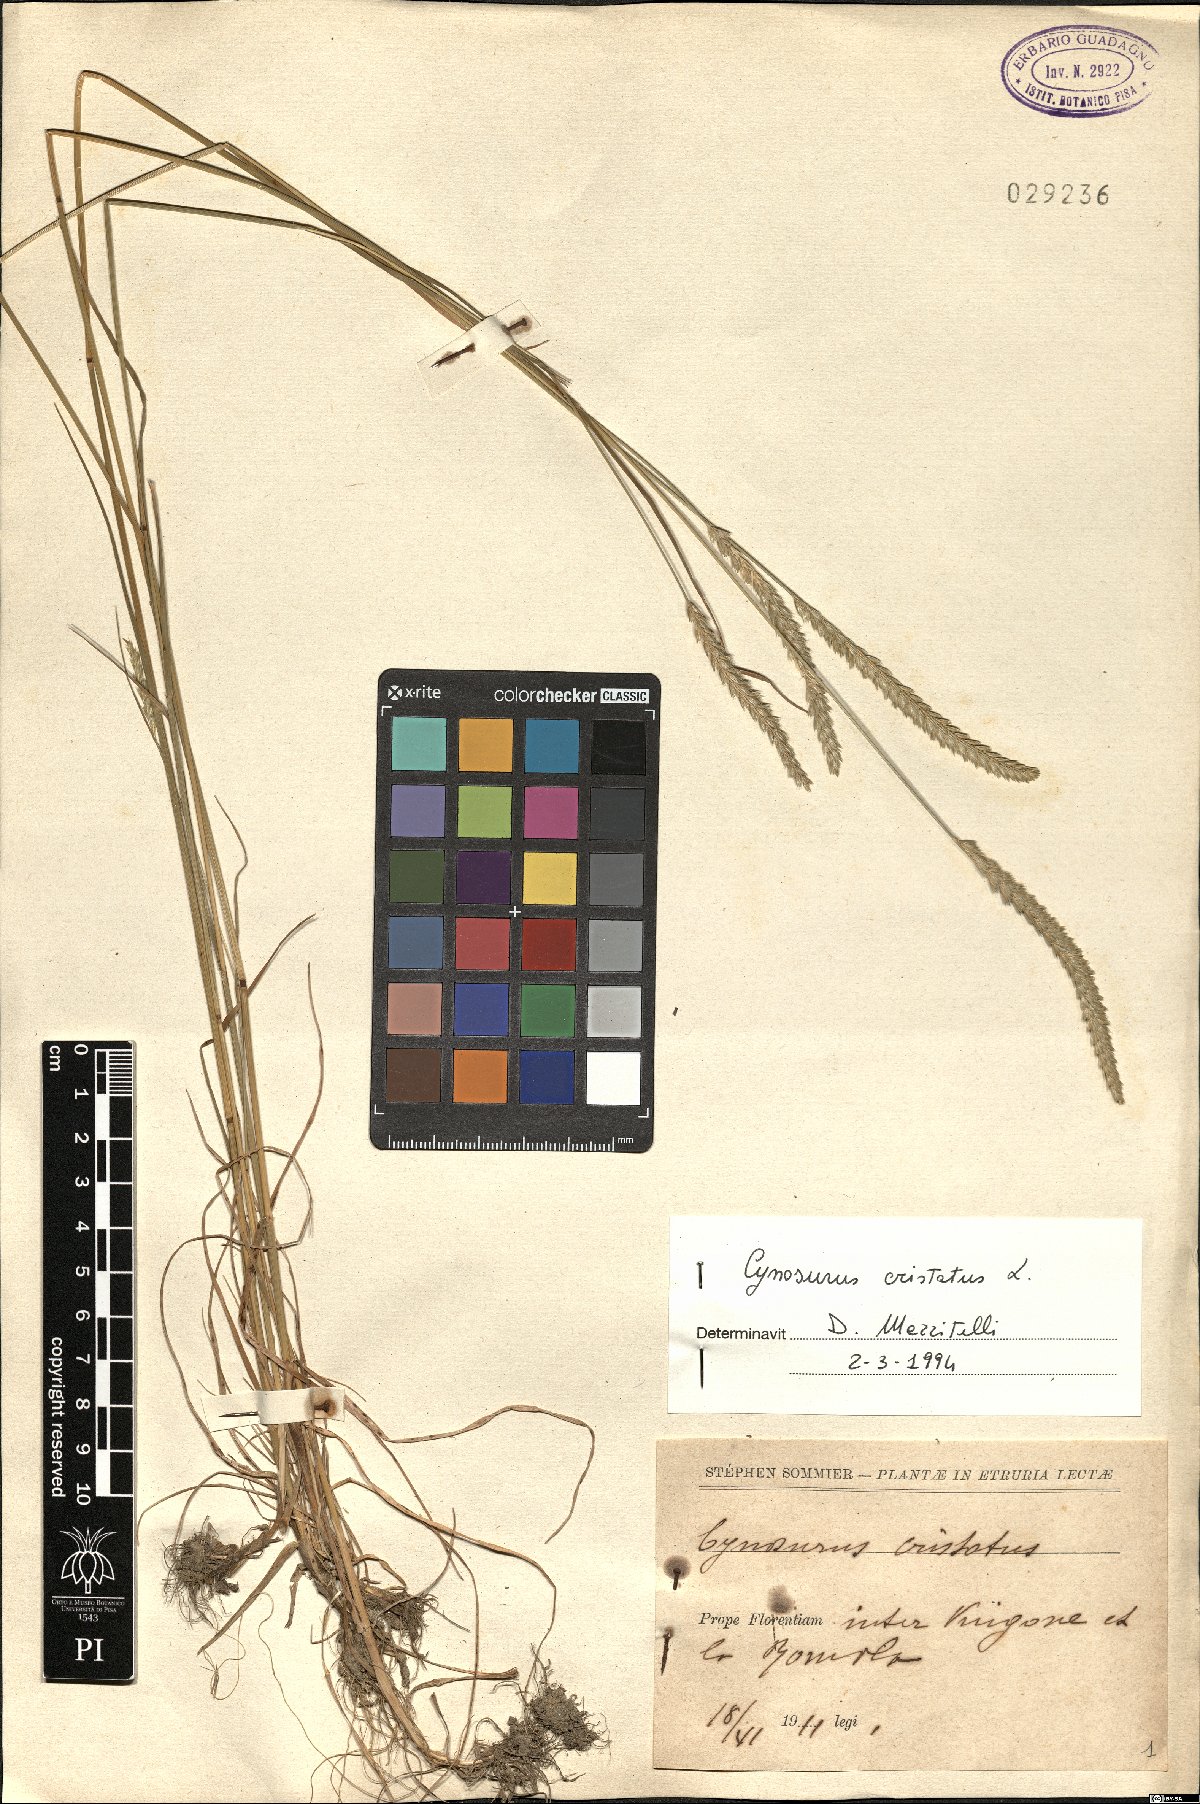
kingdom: Plantae
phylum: Tracheophyta
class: Liliopsida
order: Poales
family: Poaceae
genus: Cynosurus
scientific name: Cynosurus cristatus
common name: Crested dog's-tail
